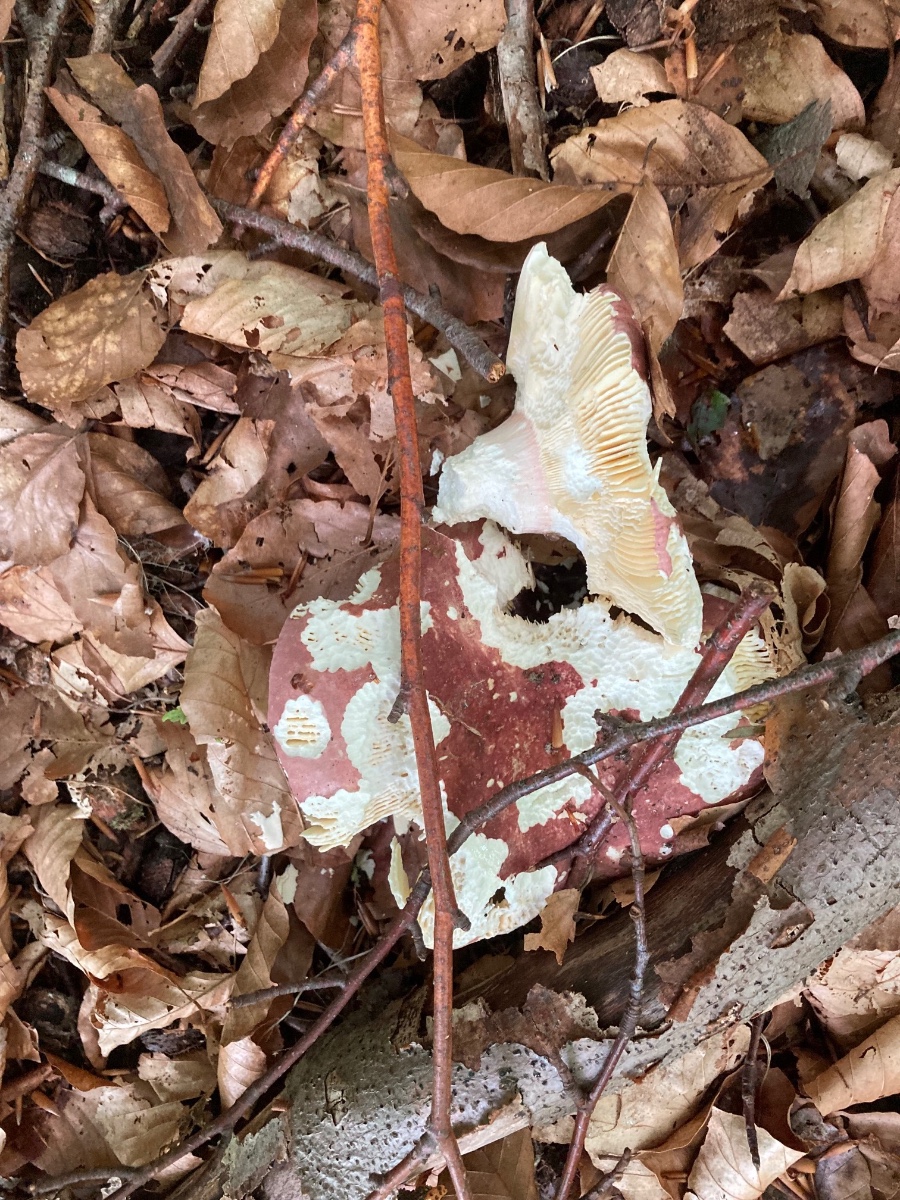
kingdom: Fungi
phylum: Basidiomycota
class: Agaricomycetes
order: Russulales
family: Russulaceae
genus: Russula
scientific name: Russula olivacea
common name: stor skørhat
